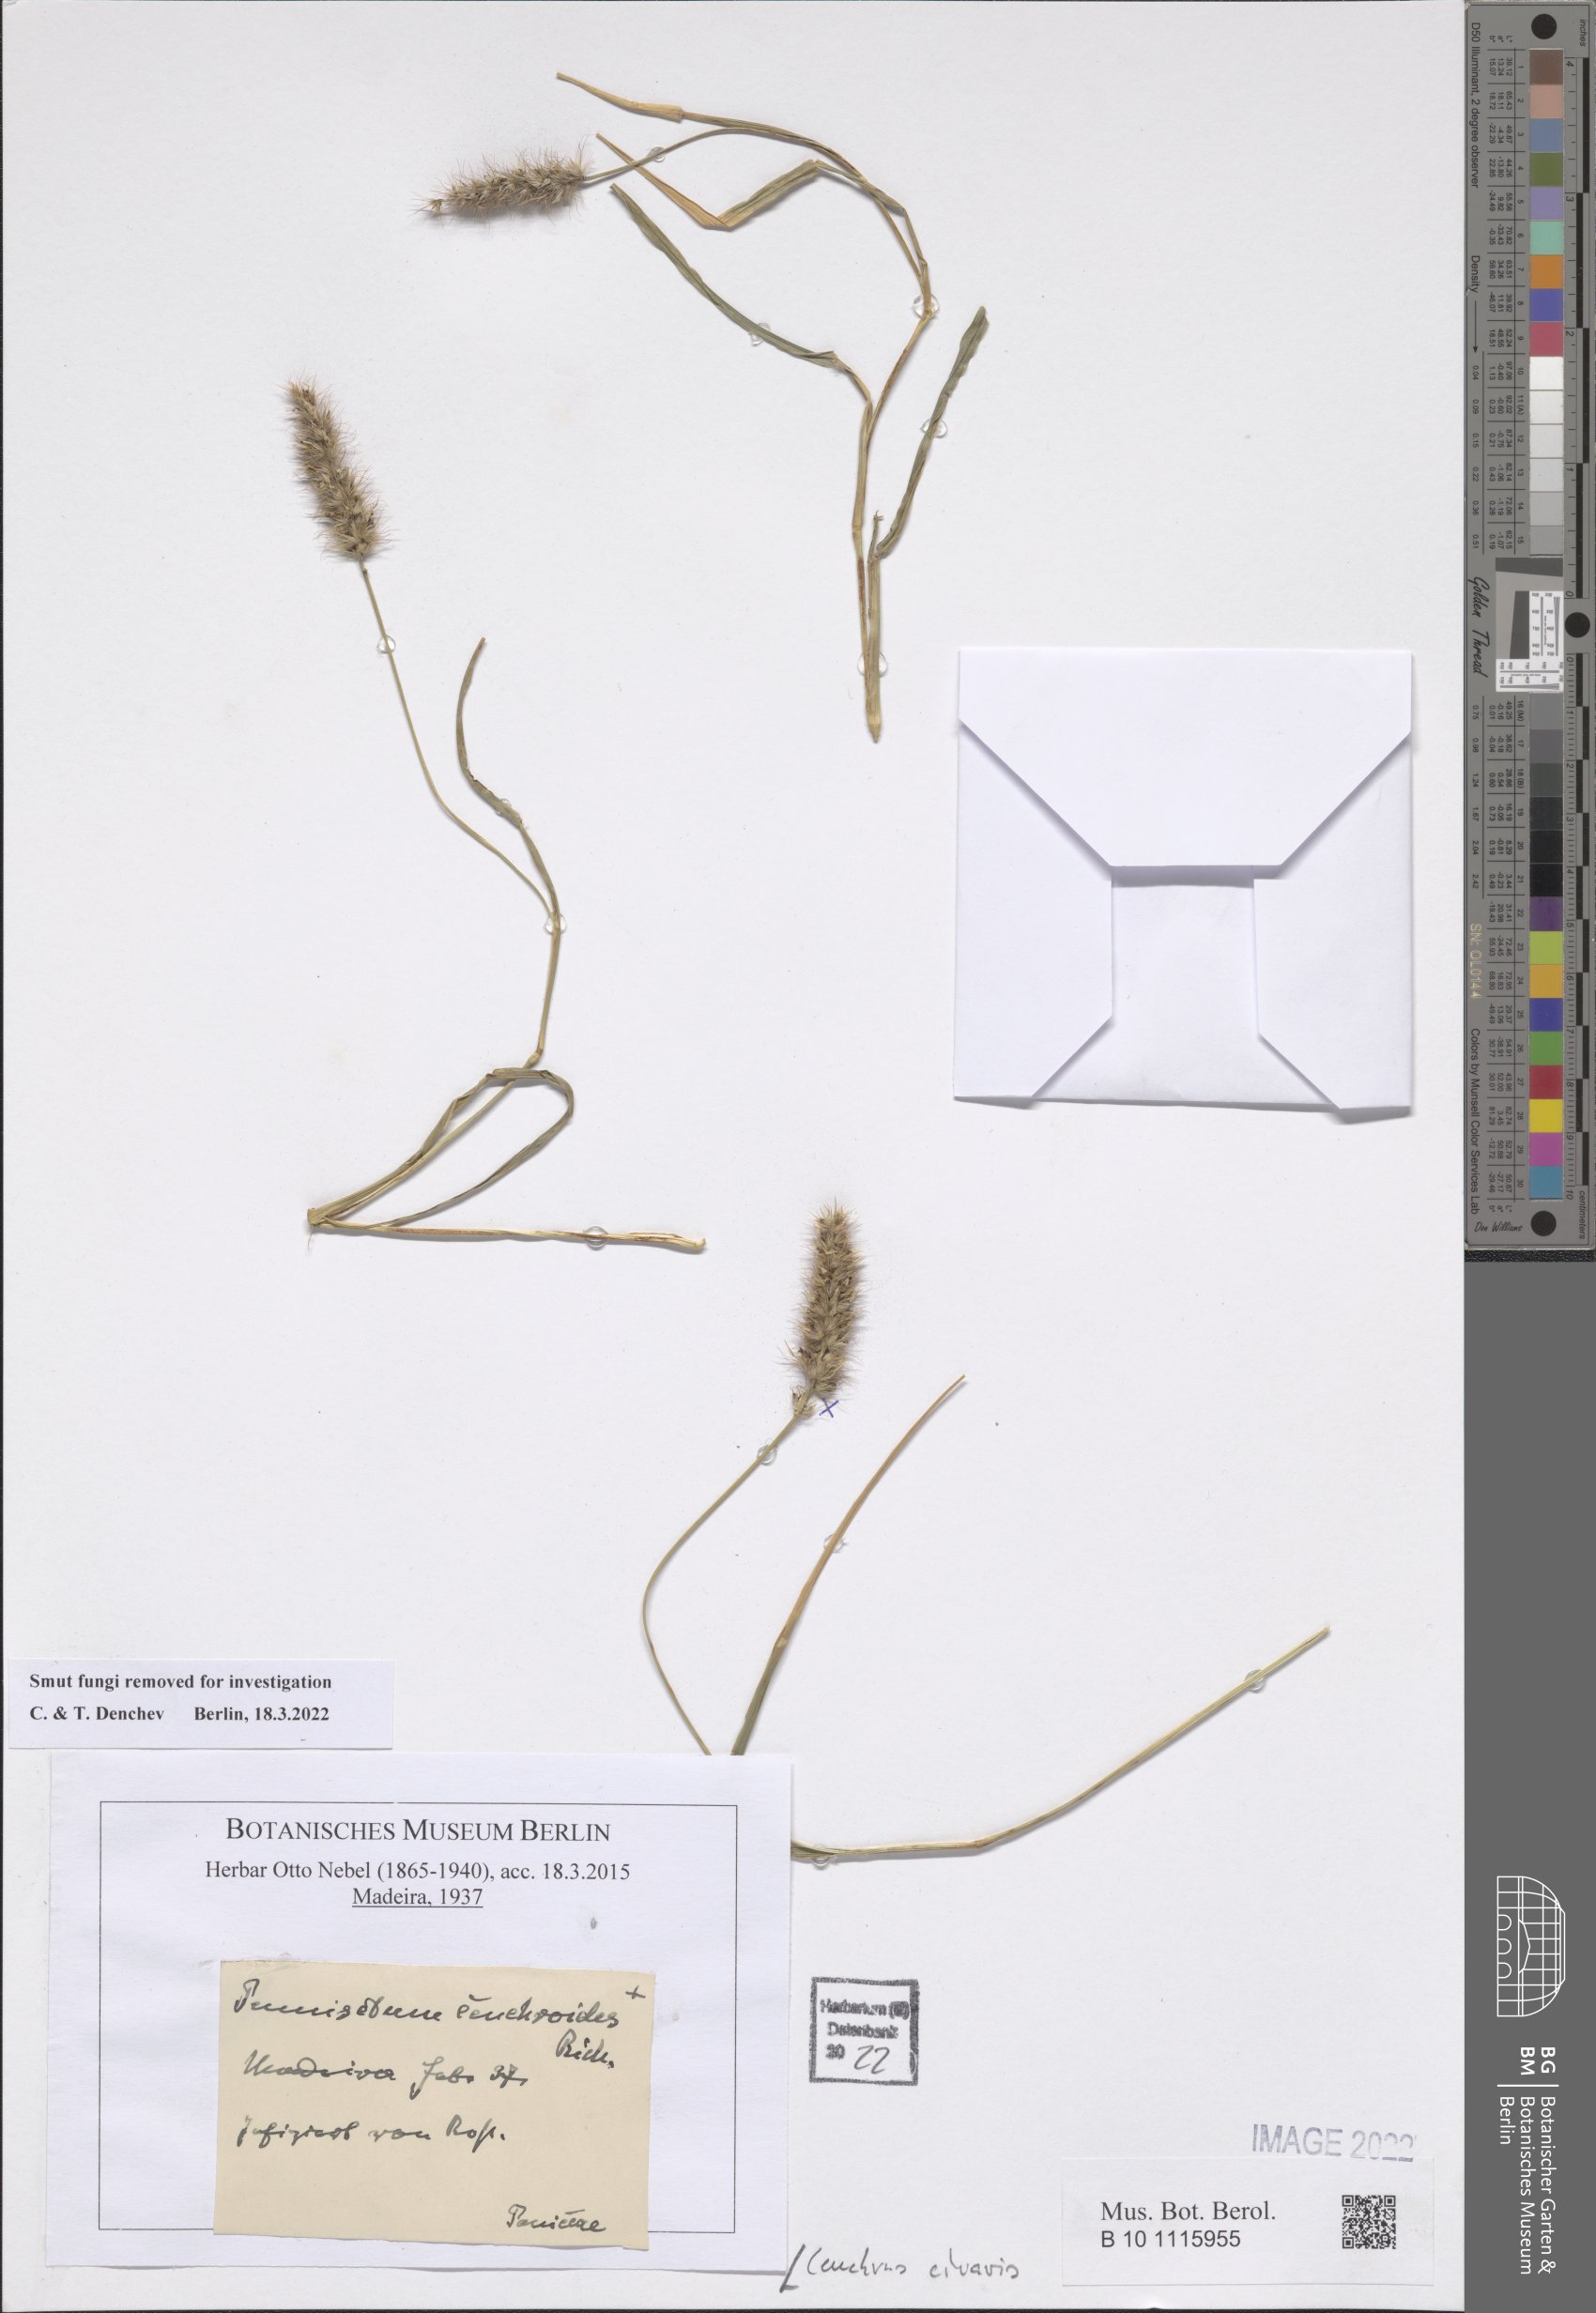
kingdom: Plantae
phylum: Tracheophyta
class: Liliopsida
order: Poales
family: Poaceae
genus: Cenchrus
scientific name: Cenchrus ciliaris
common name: Buffelgrass
